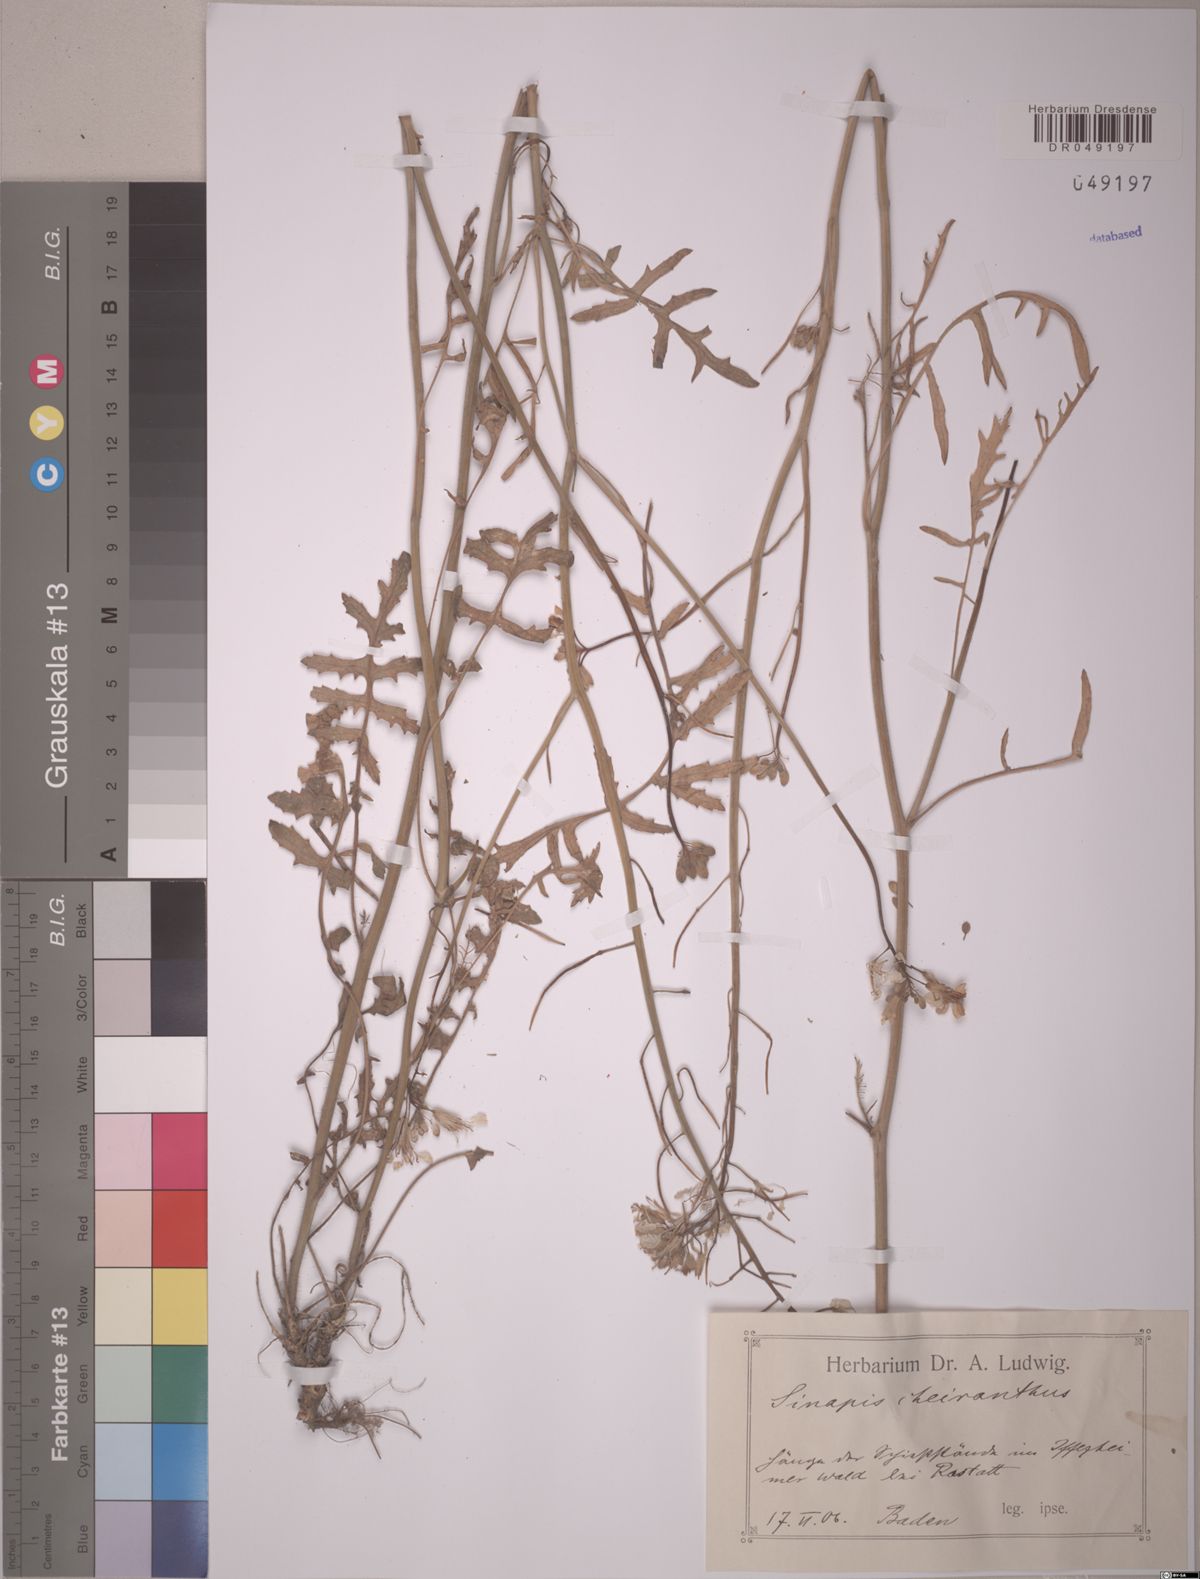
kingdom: Plantae
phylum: Tracheophyta
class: Magnoliopsida
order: Brassicales
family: Brassicaceae
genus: Coincya
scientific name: Coincya monensis
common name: Star-mustard
